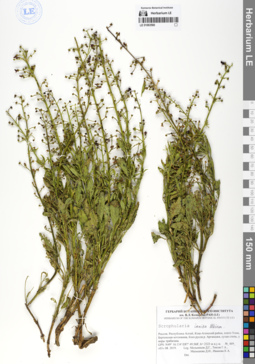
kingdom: Plantae
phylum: Tracheophyta
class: Magnoliopsida
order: Lamiales
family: Scrophulariaceae
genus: Scrophularia
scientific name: Scrophularia incisa
